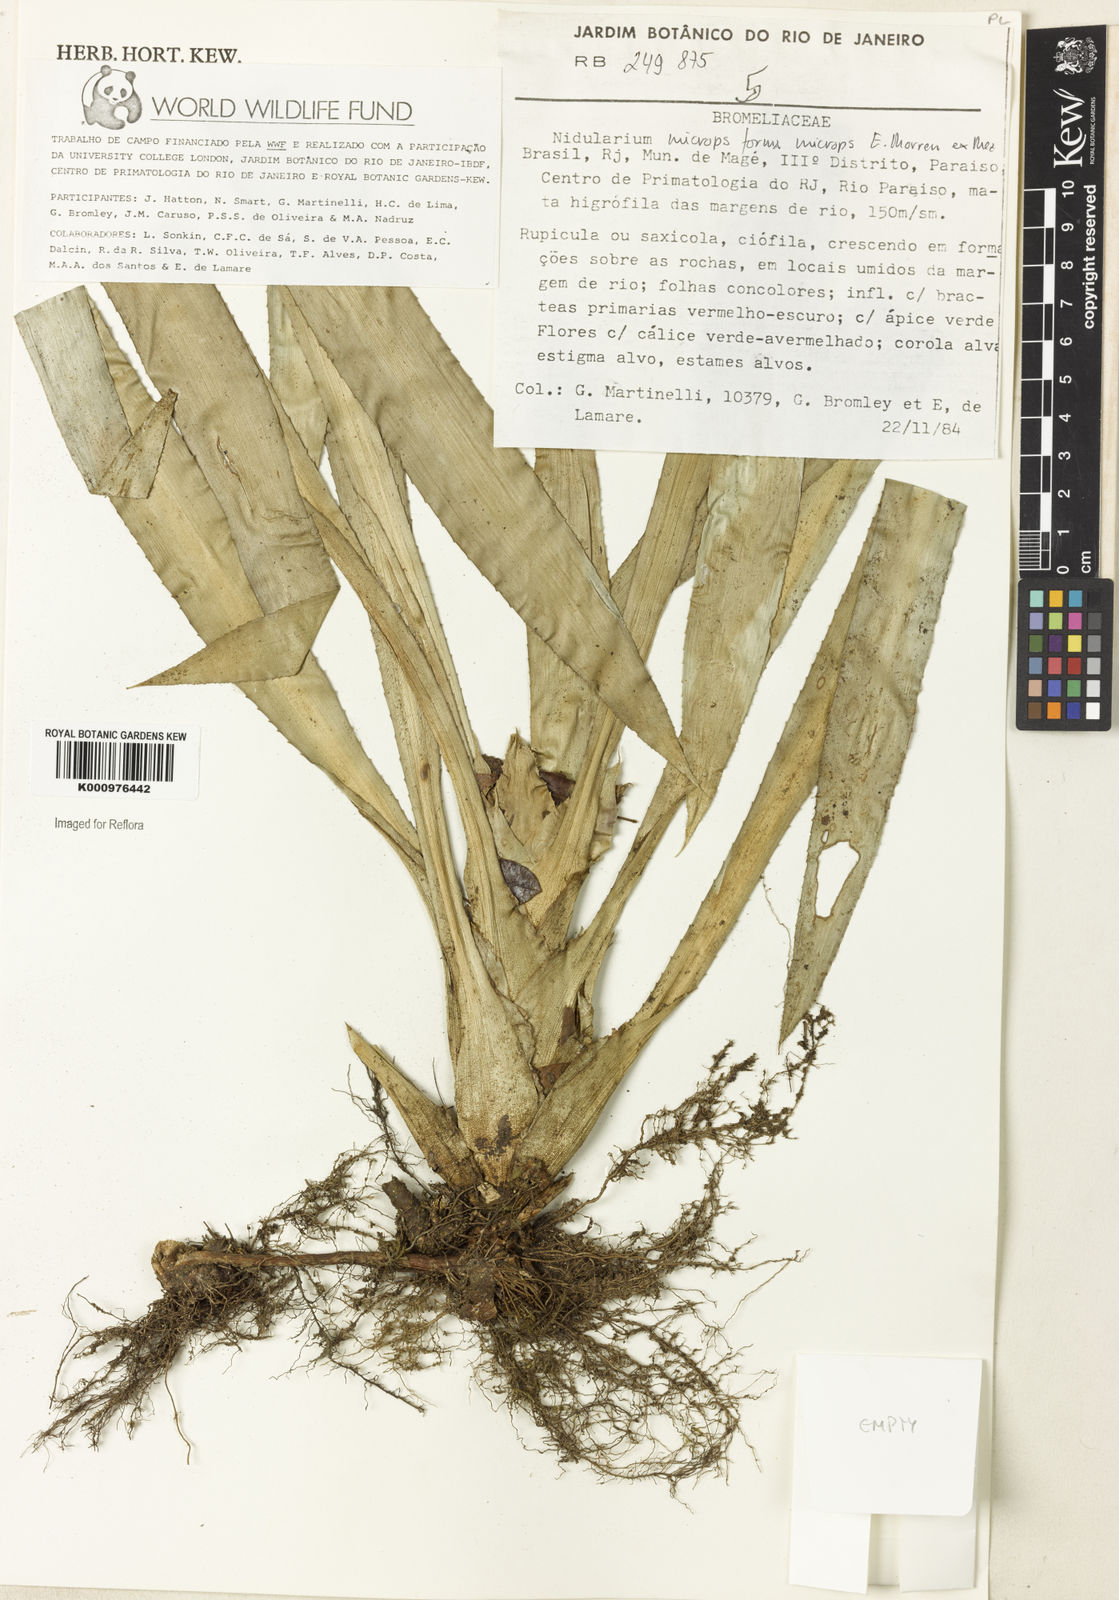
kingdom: Plantae
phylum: Tracheophyta
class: Liliopsida
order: Poales
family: Bromeliaceae
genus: Canistropsis
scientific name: Canistropsis microps
